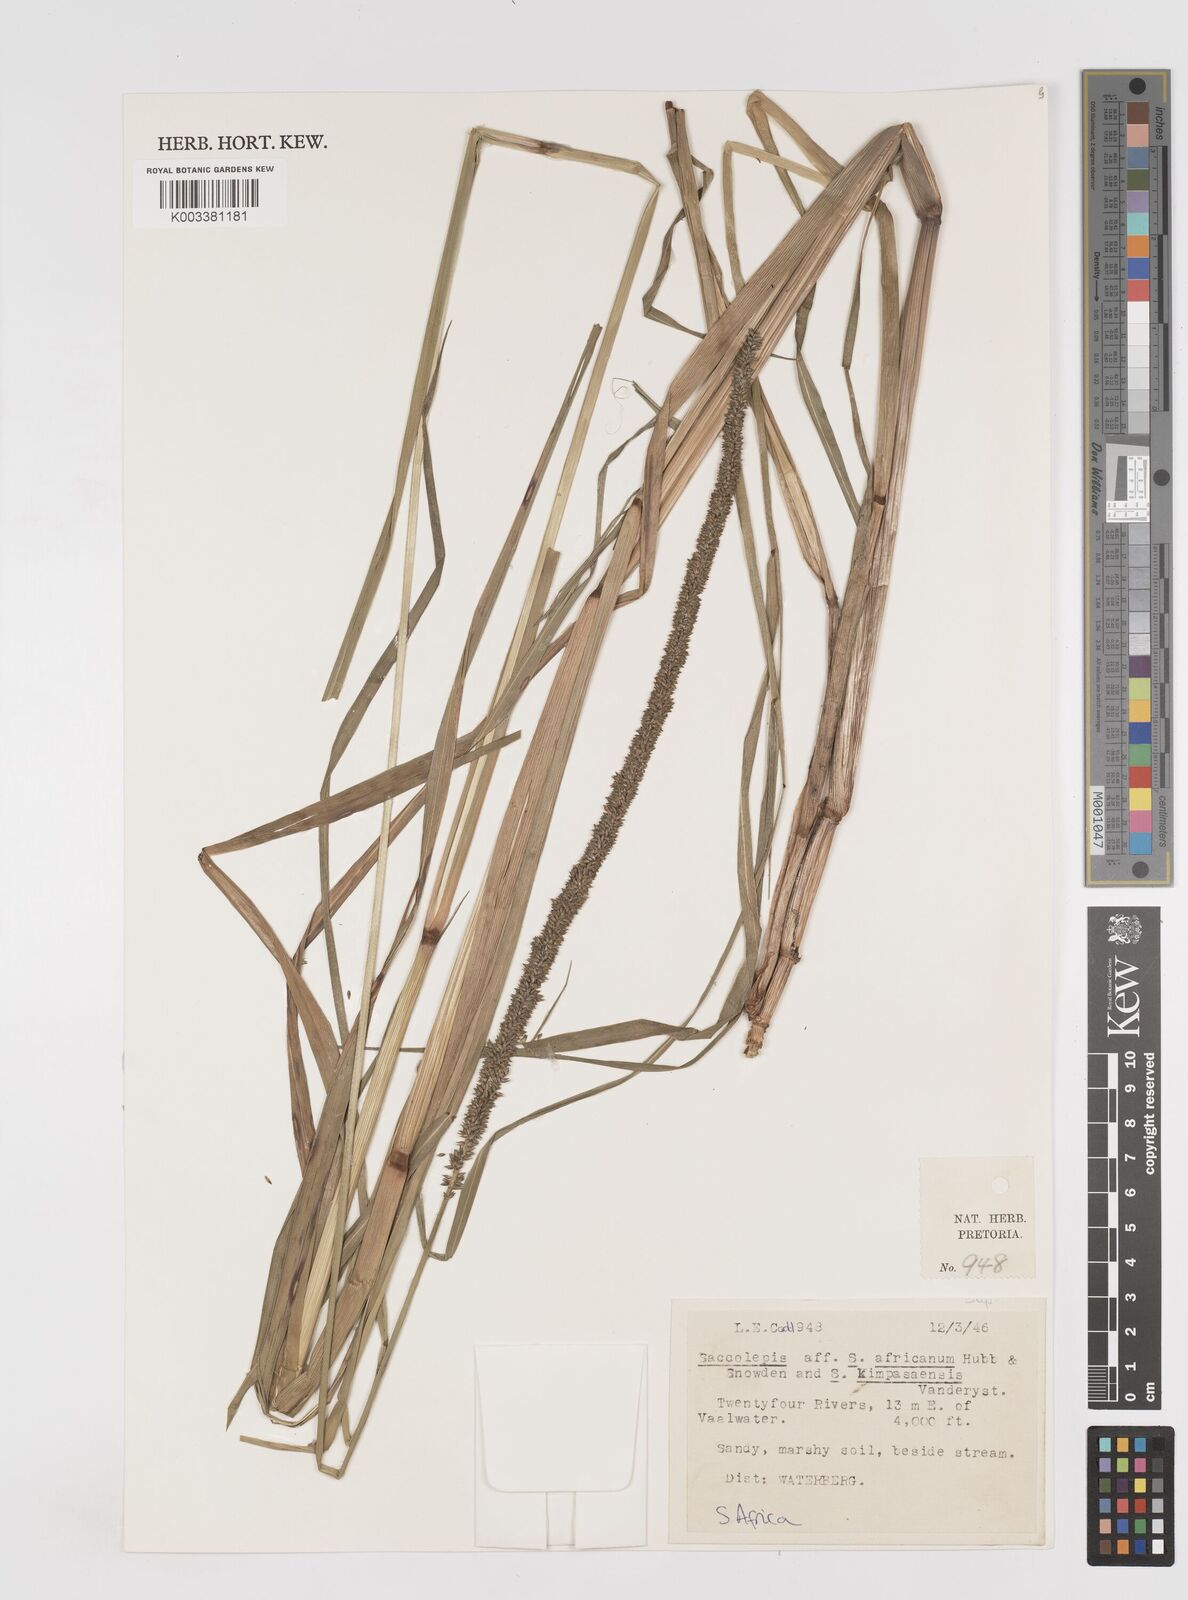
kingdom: Plantae
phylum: Tracheophyta
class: Liliopsida
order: Poales
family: Poaceae
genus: Sacciolepis
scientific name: Sacciolepis africana
